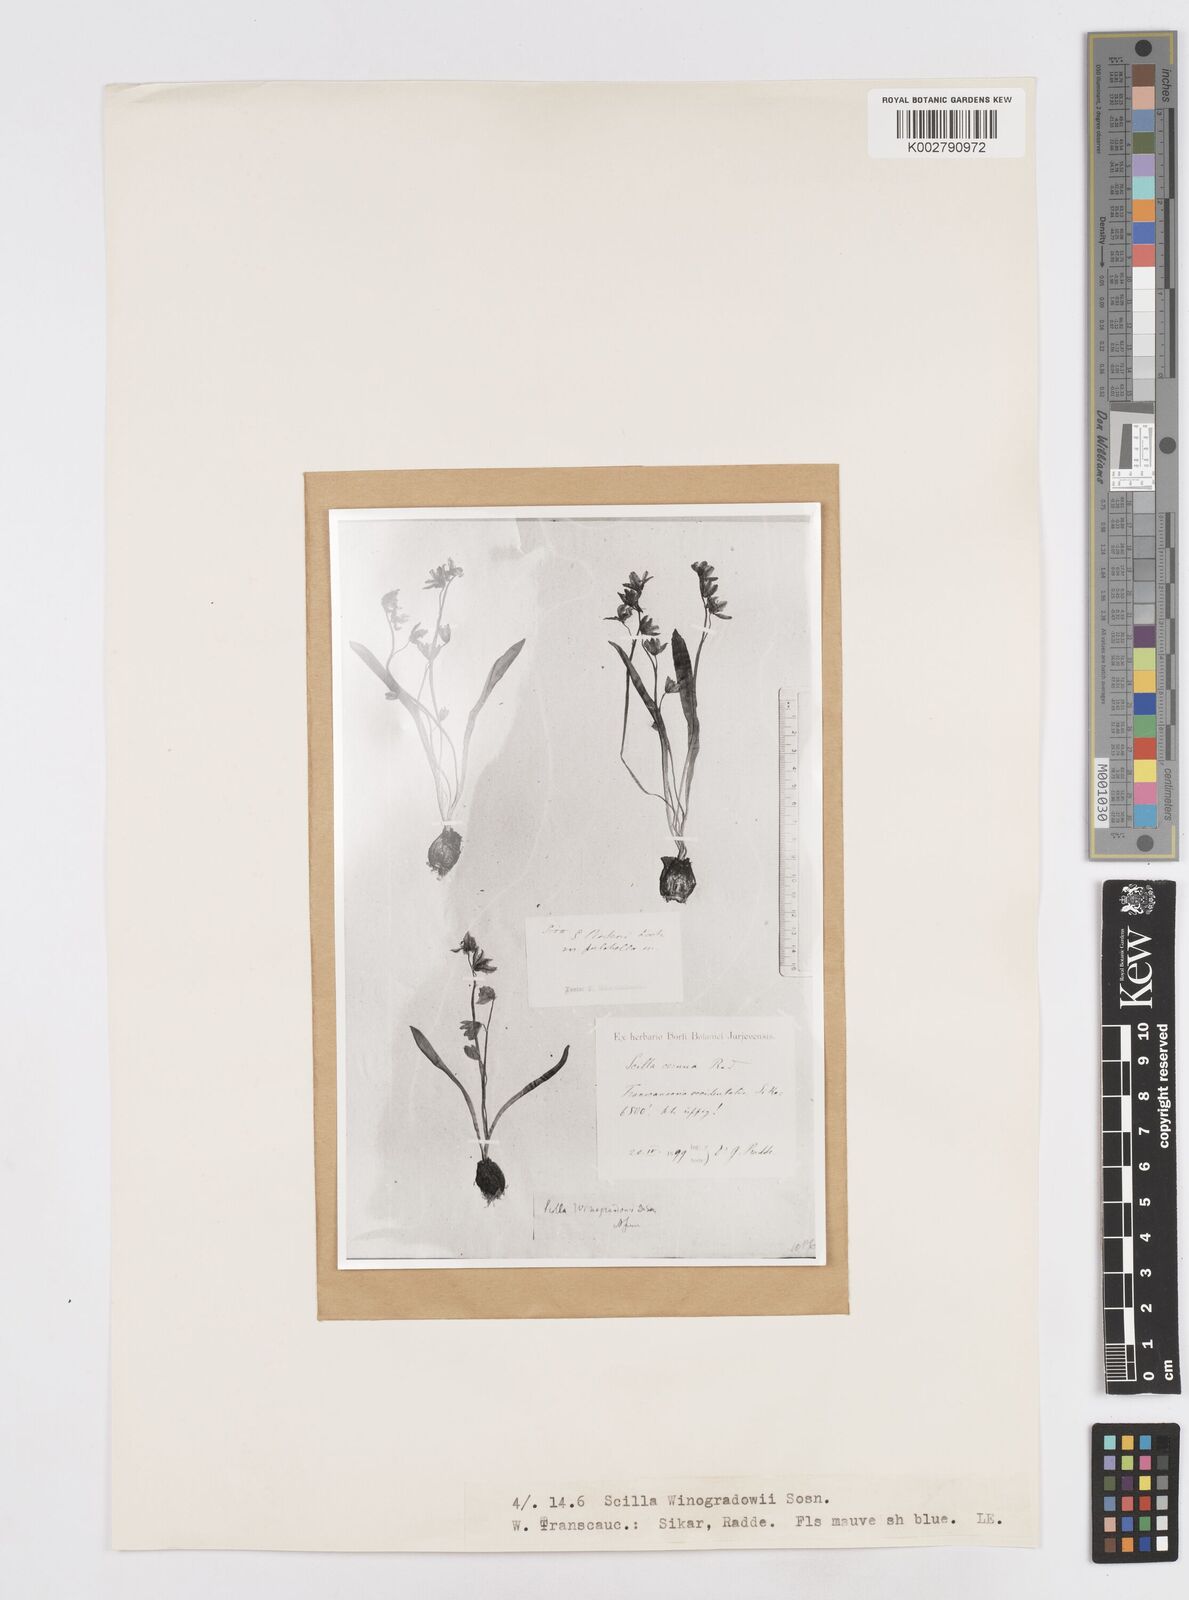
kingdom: Plantae
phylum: Tracheophyta
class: Liliopsida
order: Asparagales
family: Asparagaceae
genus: Scilla
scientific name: Scilla monanthos
